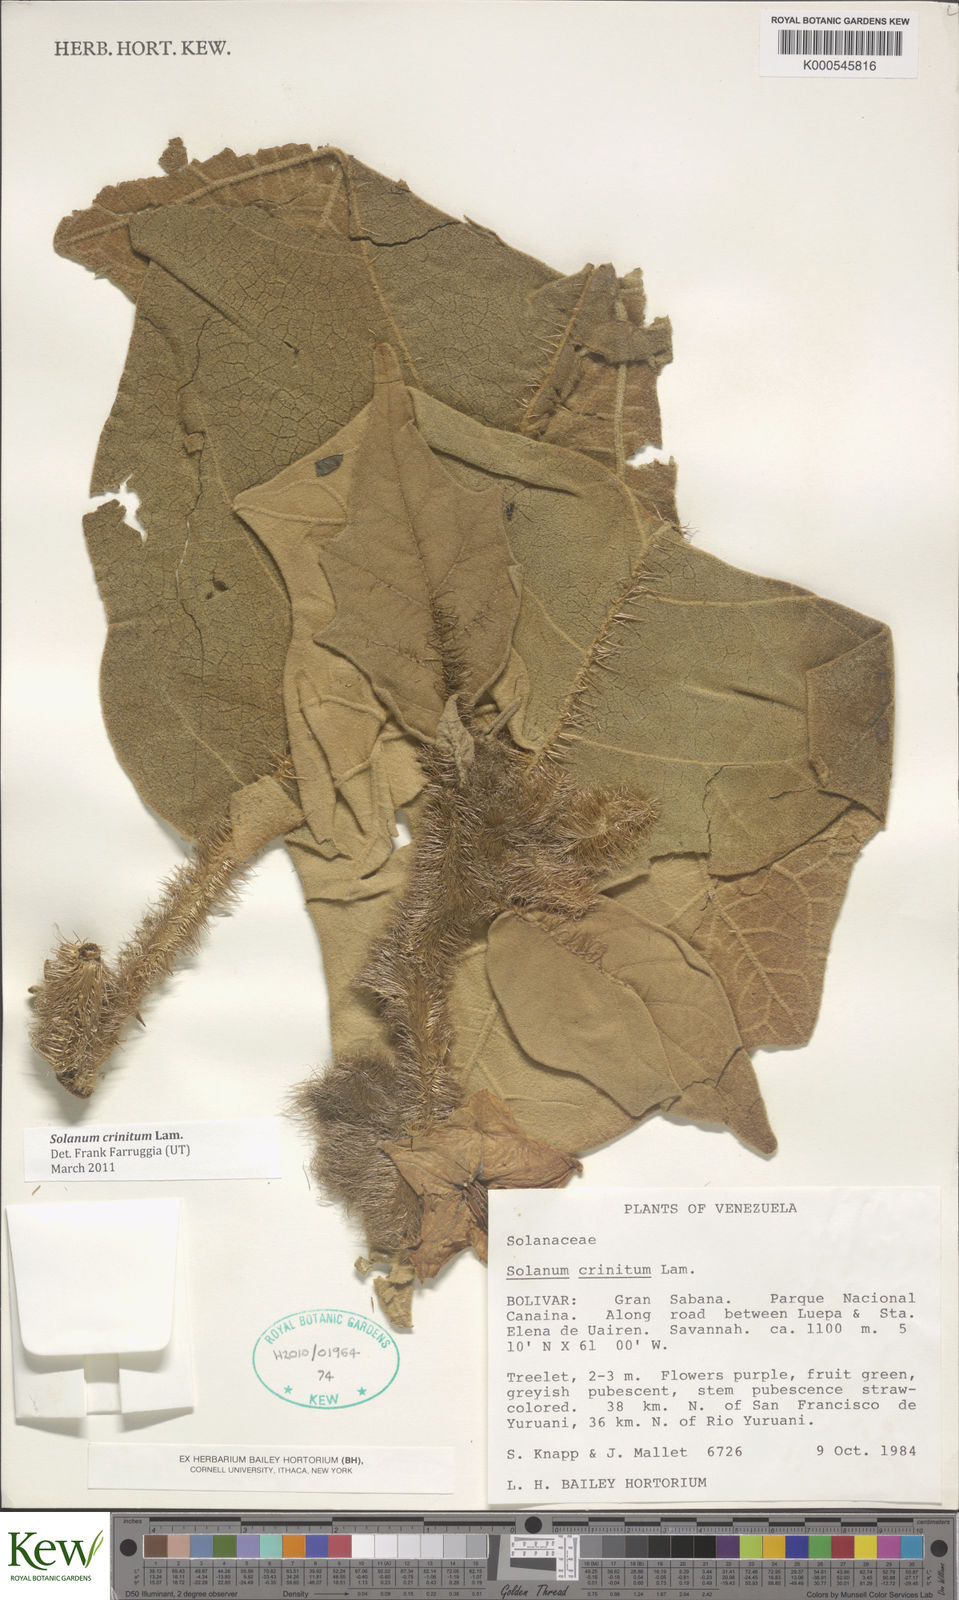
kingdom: Plantae
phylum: Tracheophyta
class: Magnoliopsida
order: Solanales
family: Solanaceae
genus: Solanum
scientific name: Solanum crinitum
